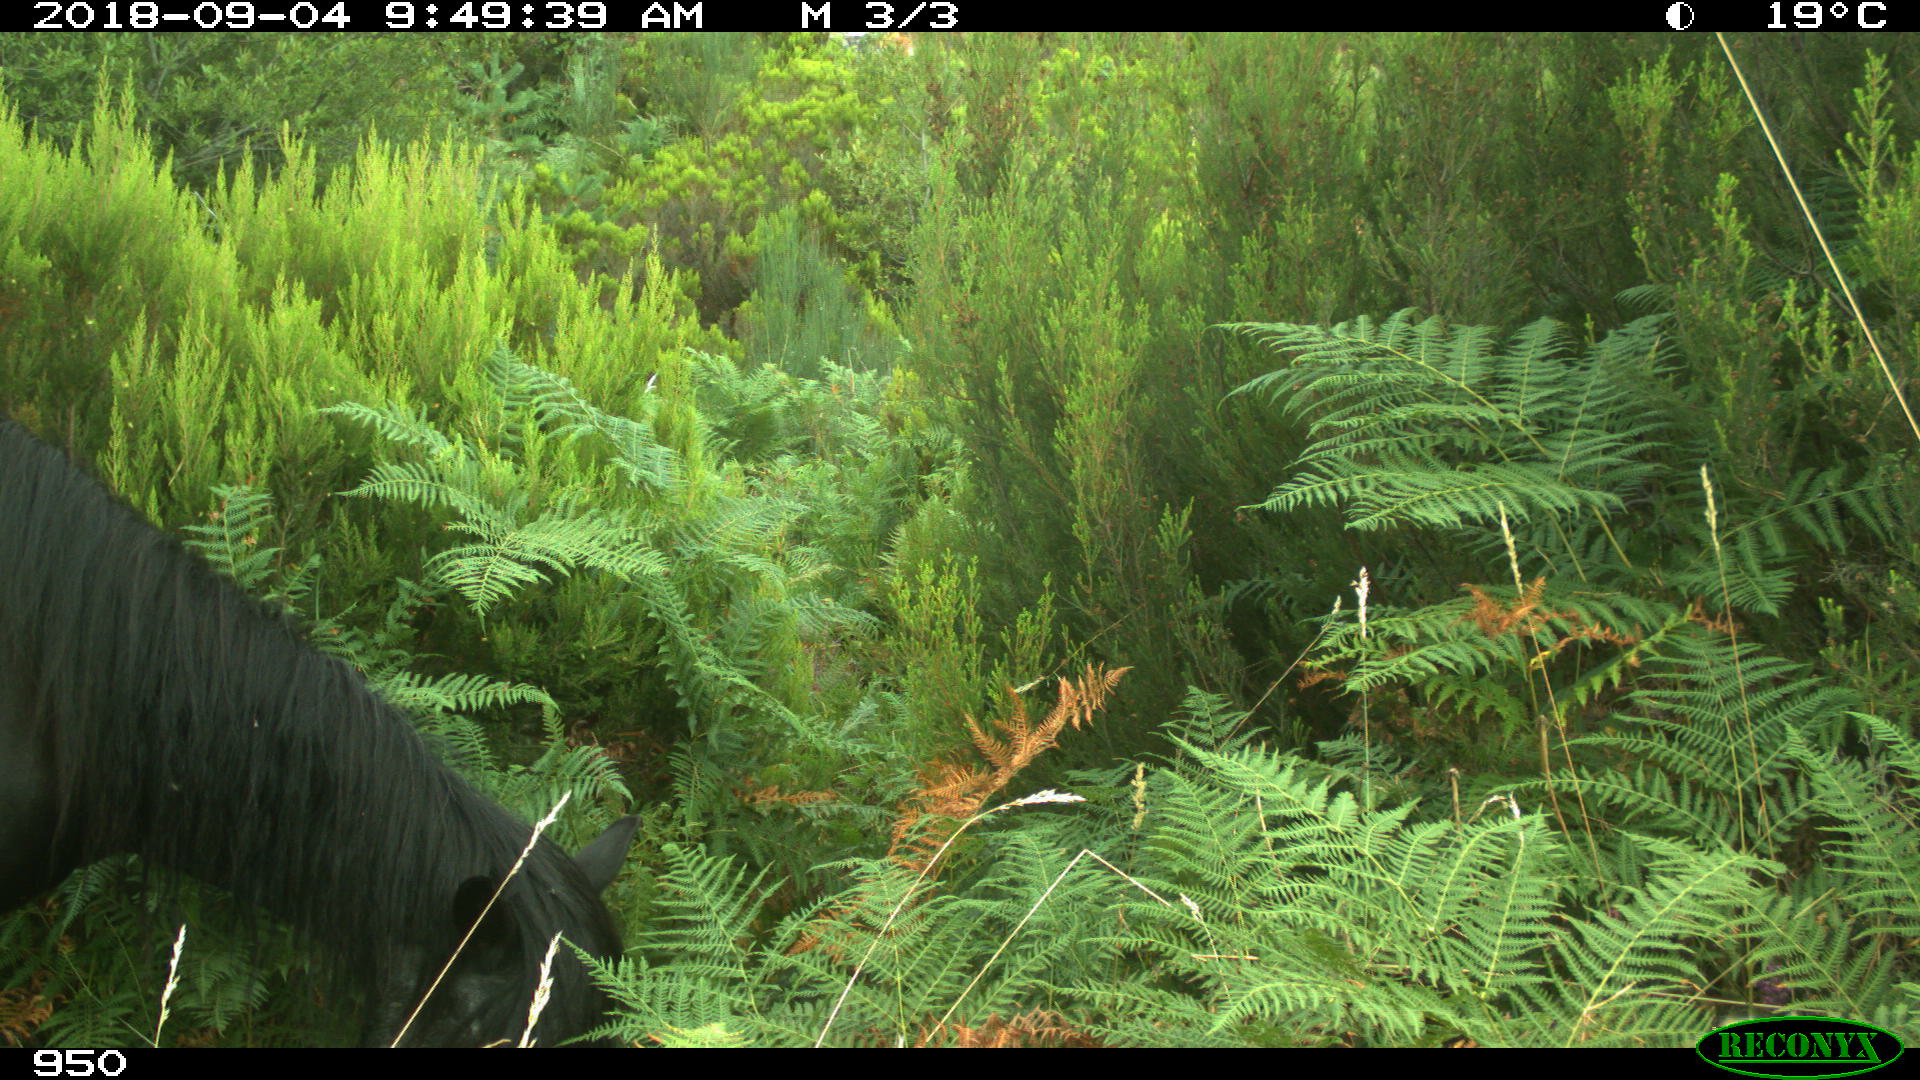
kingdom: Animalia
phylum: Chordata
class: Mammalia
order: Perissodactyla
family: Equidae
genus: Equus
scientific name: Equus caballus
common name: Horse
